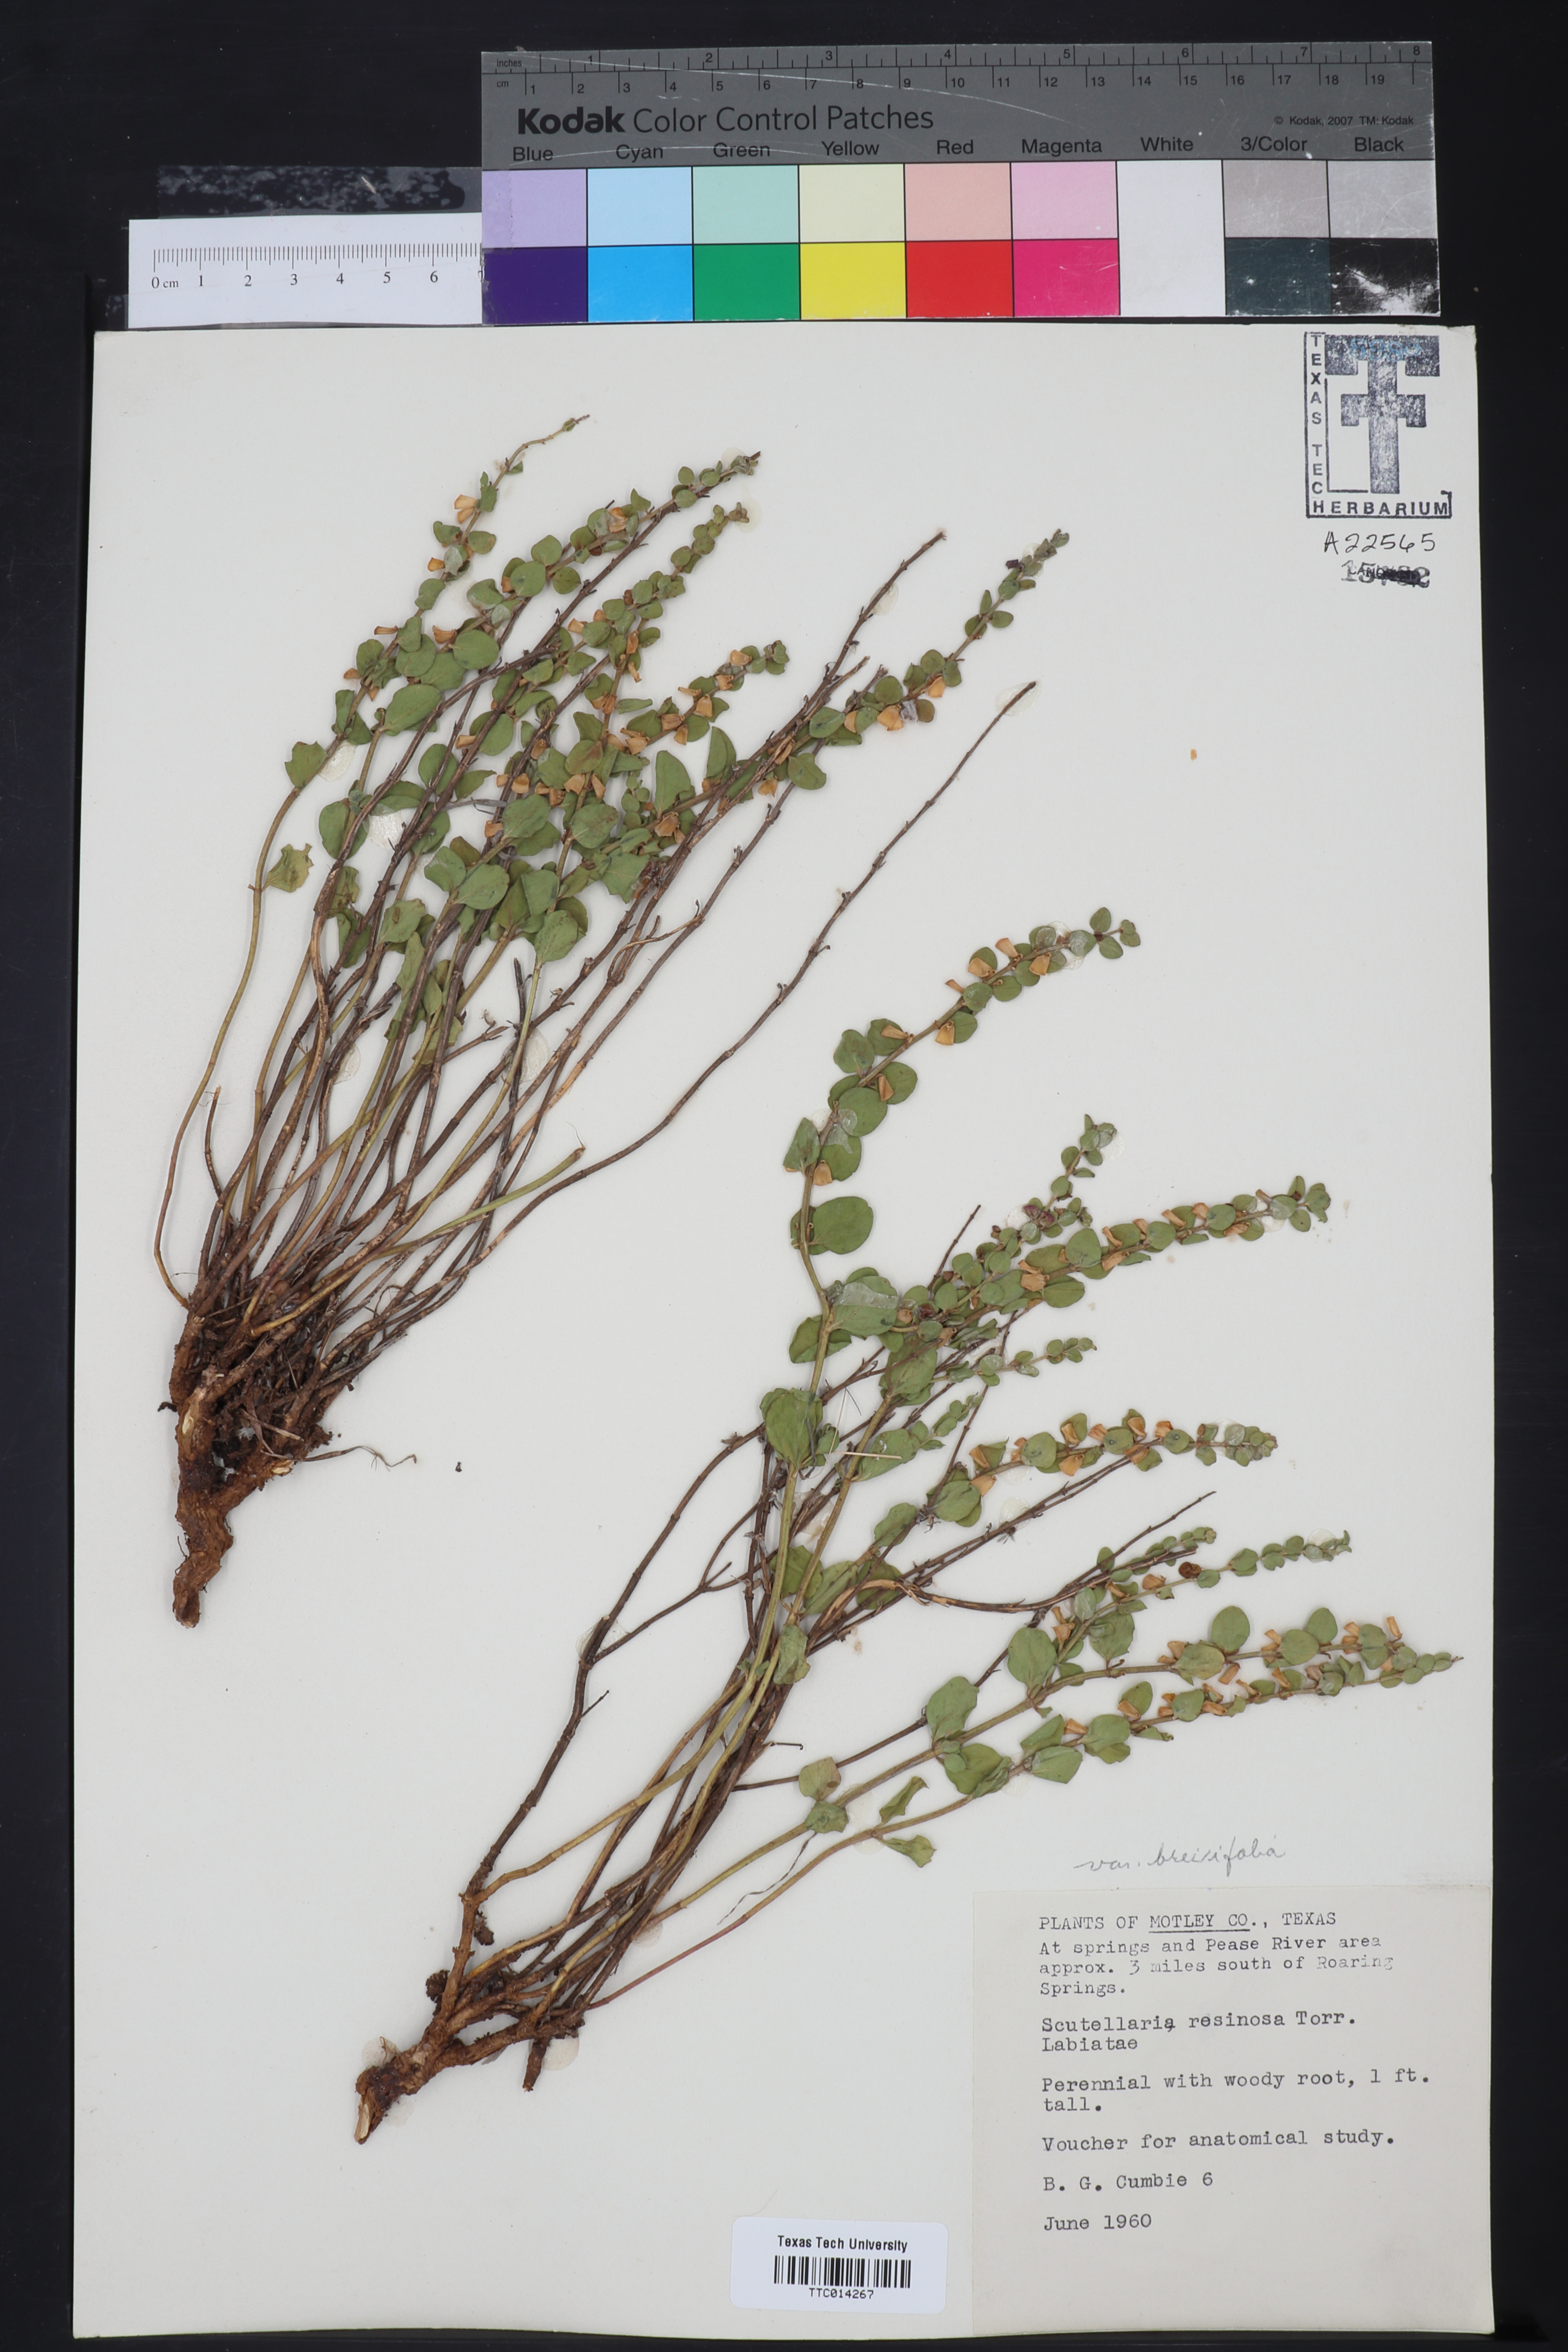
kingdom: Plantae
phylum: Tracheophyta
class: Magnoliopsida
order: Lamiales
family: Lamiaceae
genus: Scutellaria
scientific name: Scutellaria resinosa
